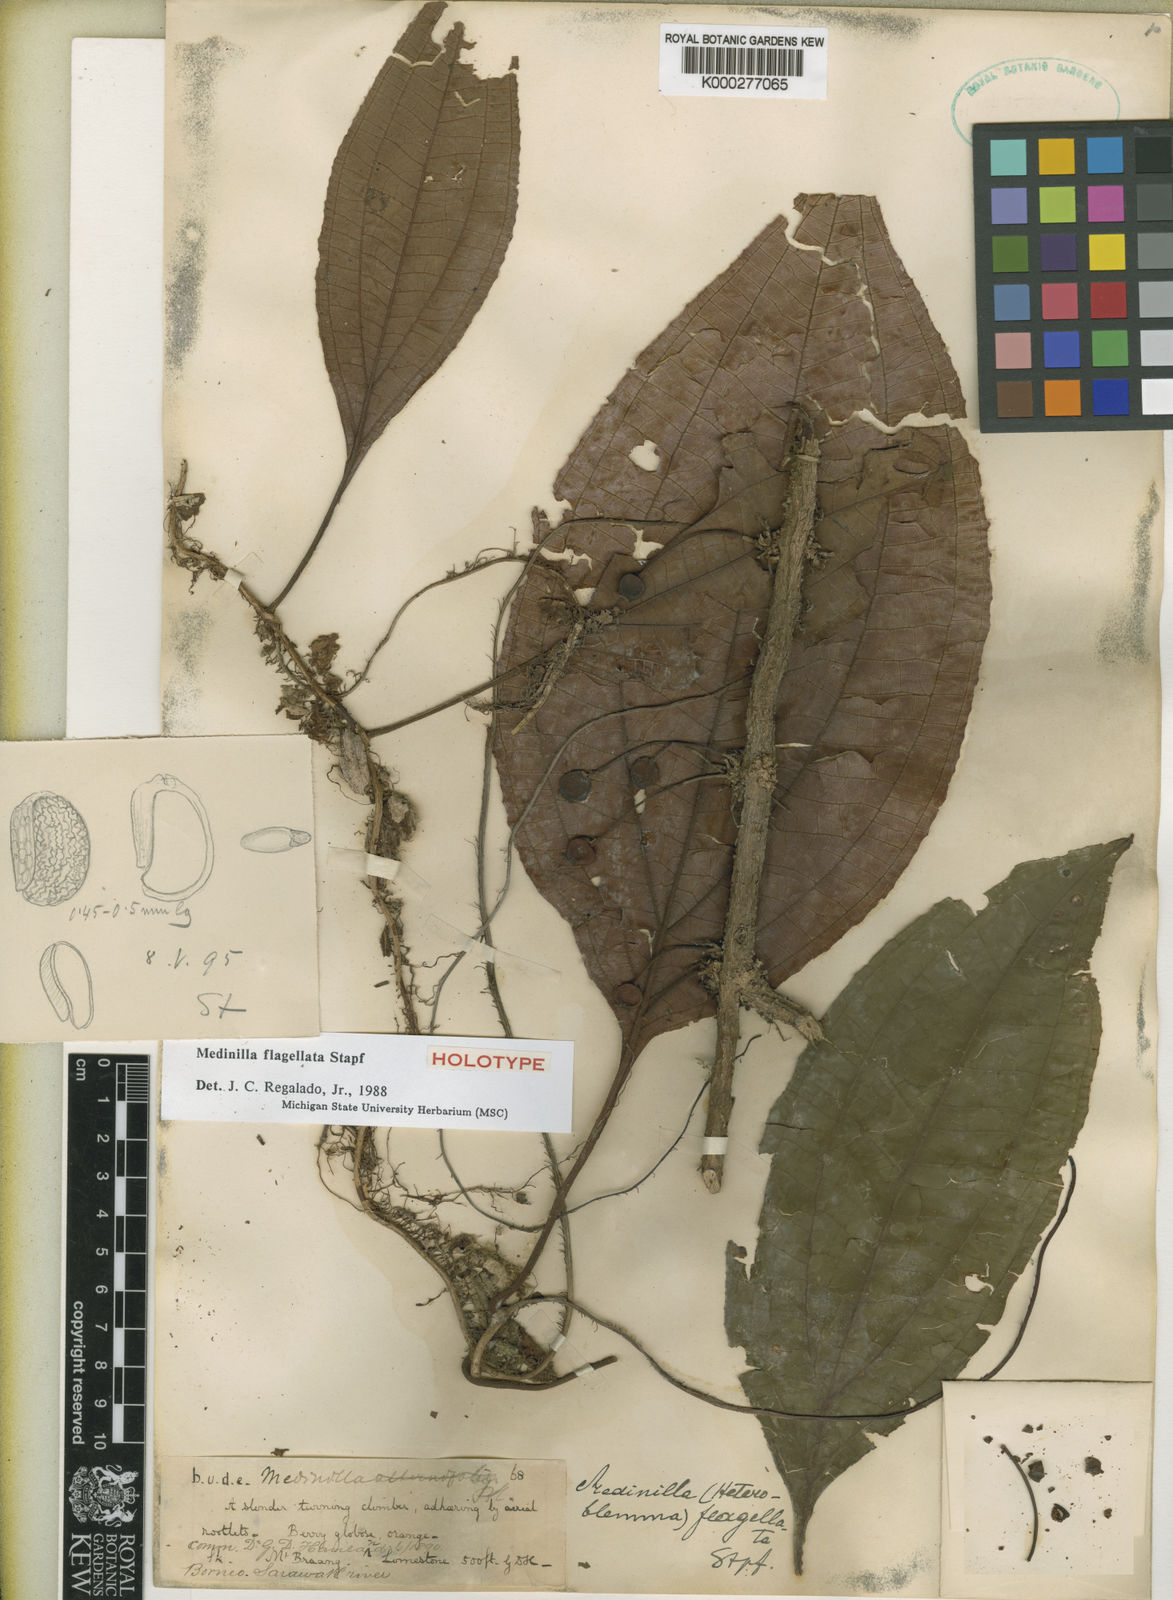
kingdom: Plantae
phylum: Tracheophyta
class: Magnoliopsida
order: Myrtales
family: Melastomataceae
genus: Heteroblemma
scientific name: Heteroblemma flagellatum
